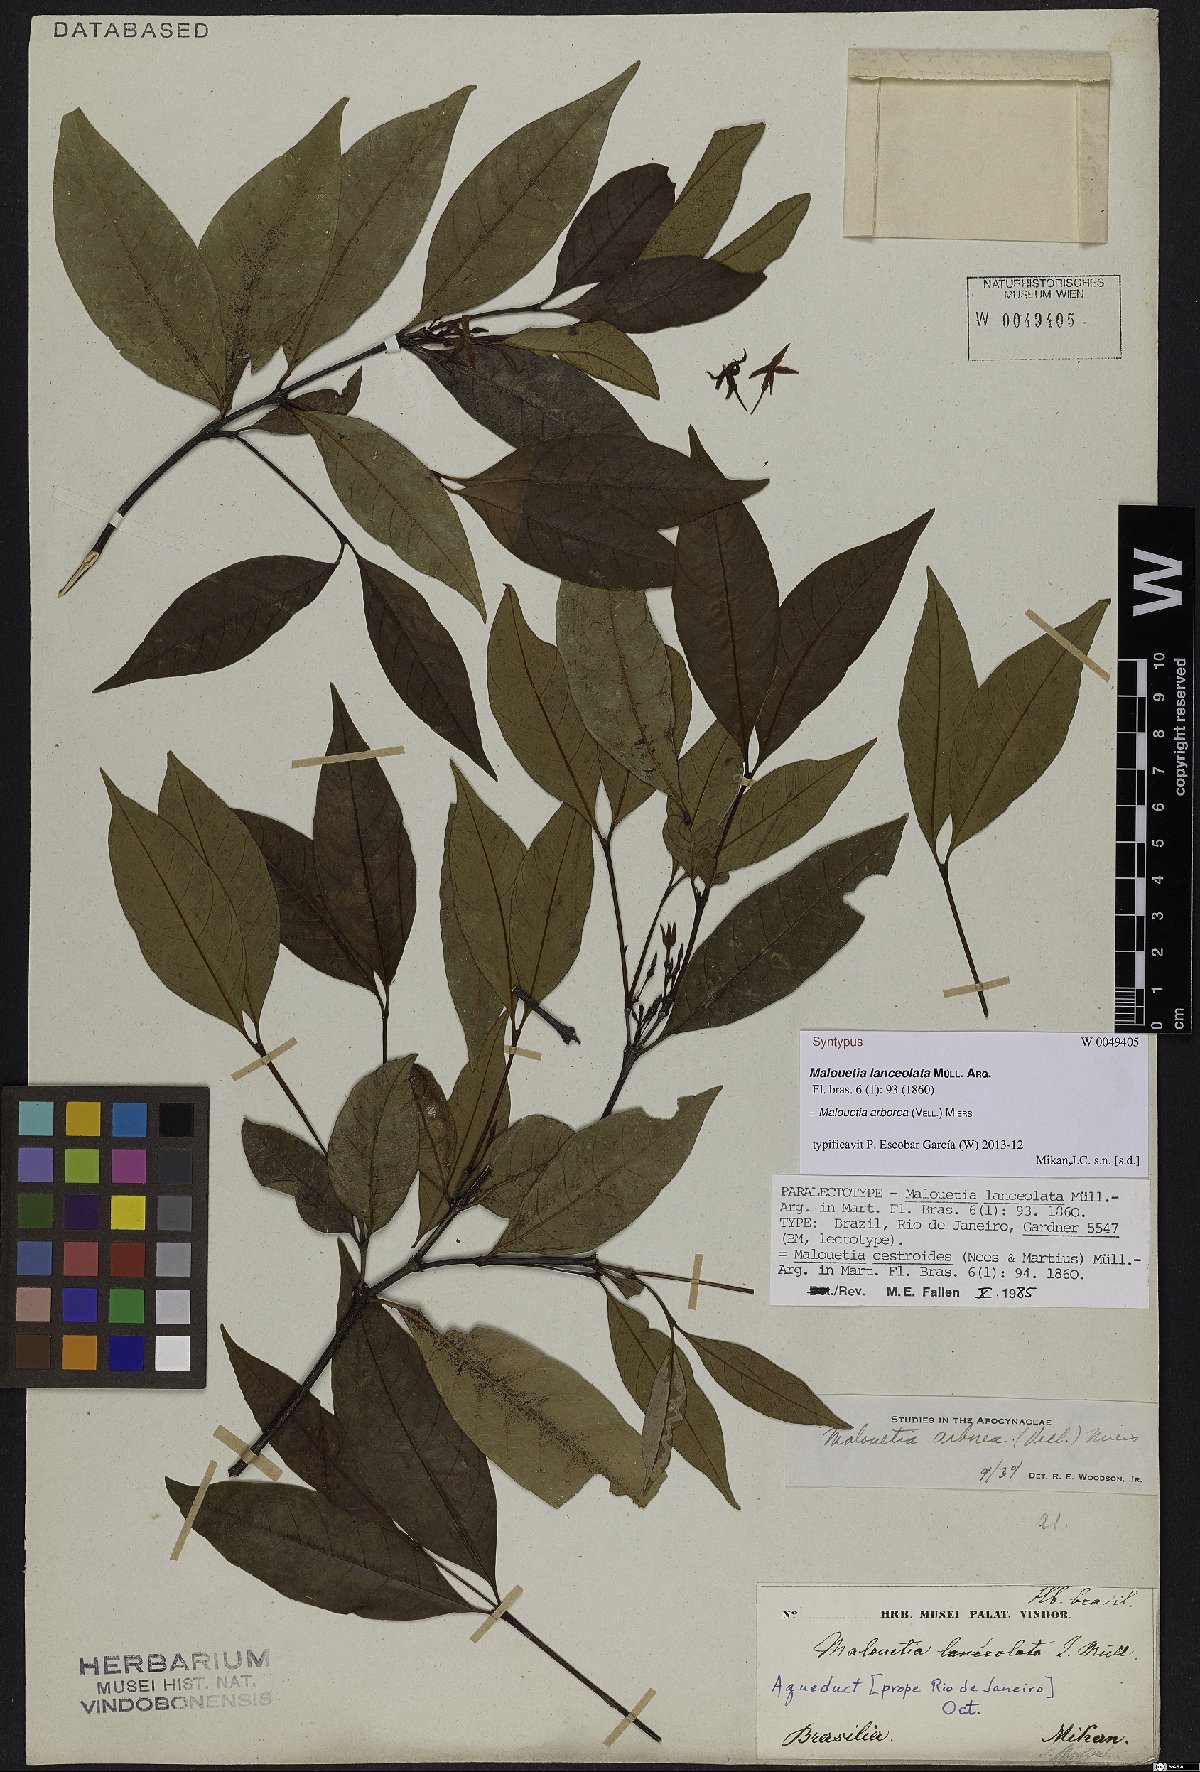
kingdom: Plantae
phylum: Tracheophyta
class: Magnoliopsida
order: Gentianales
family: Apocynaceae
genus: Malouetia
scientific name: Malouetia cestroides
